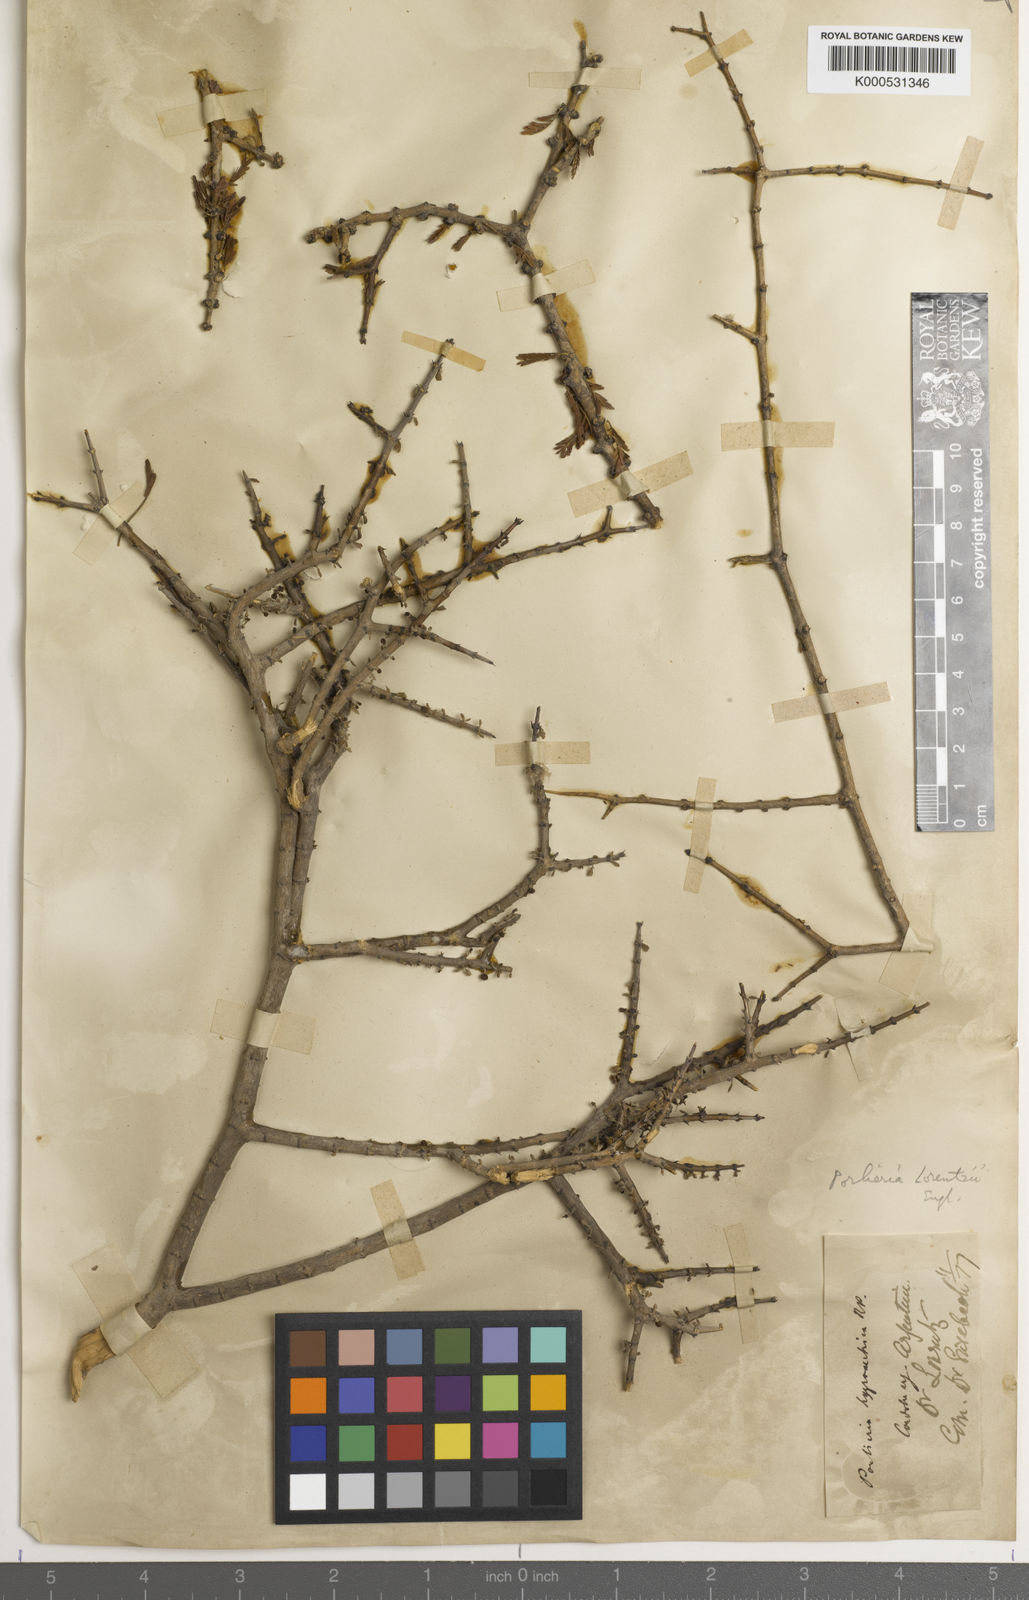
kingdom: Plantae
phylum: Tracheophyta
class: Magnoliopsida
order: Zygophyllales
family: Zygophyllaceae
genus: Porlieria
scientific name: Porlieria microphylla
